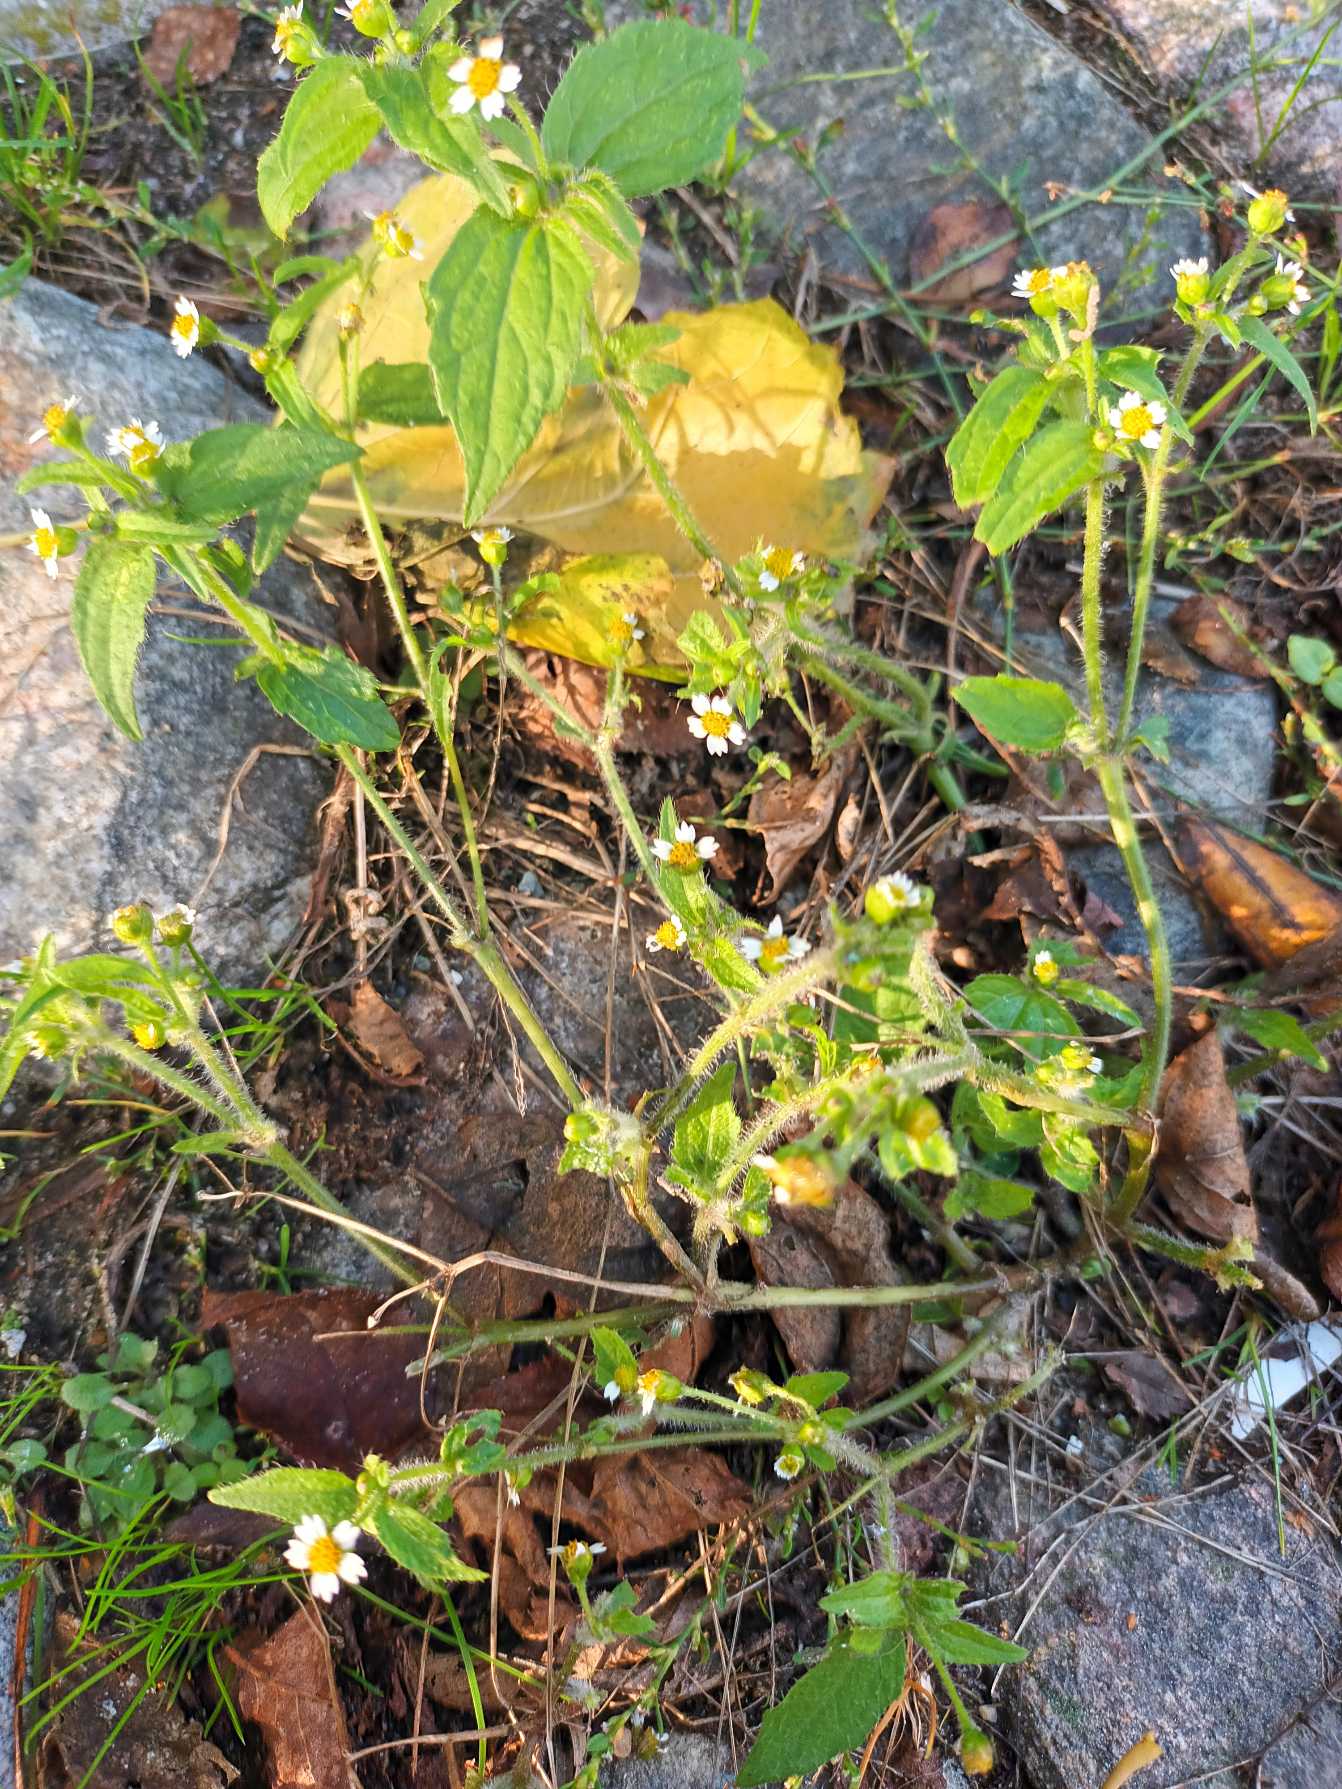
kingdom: Plantae
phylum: Tracheophyta
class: Magnoliopsida
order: Asterales
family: Asteraceae
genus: Galinsoga
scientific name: Galinsoga quadriradiata
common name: Kirtel-kortstråle
